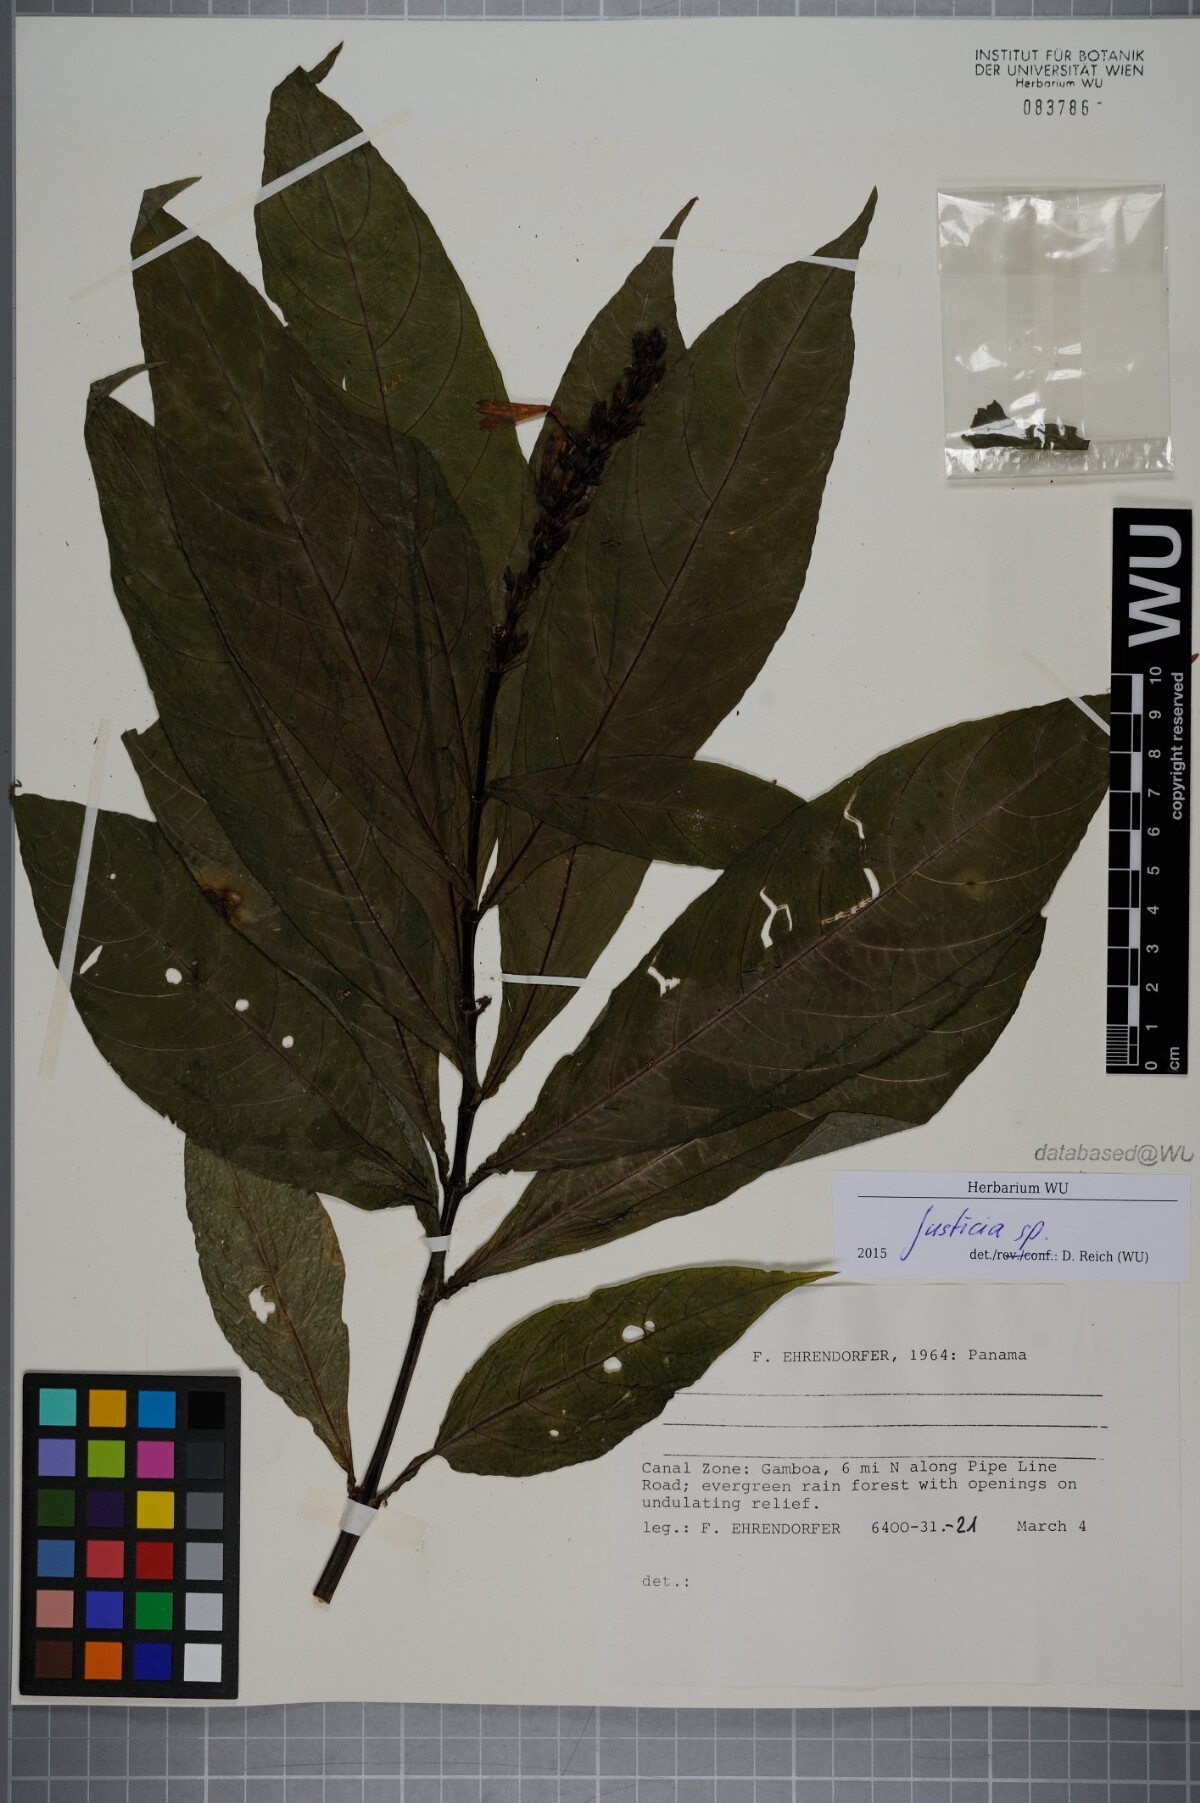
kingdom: Plantae
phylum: Tracheophyta
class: Magnoliopsida
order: Lamiales
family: Acanthaceae
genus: Justicia
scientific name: Justicia
